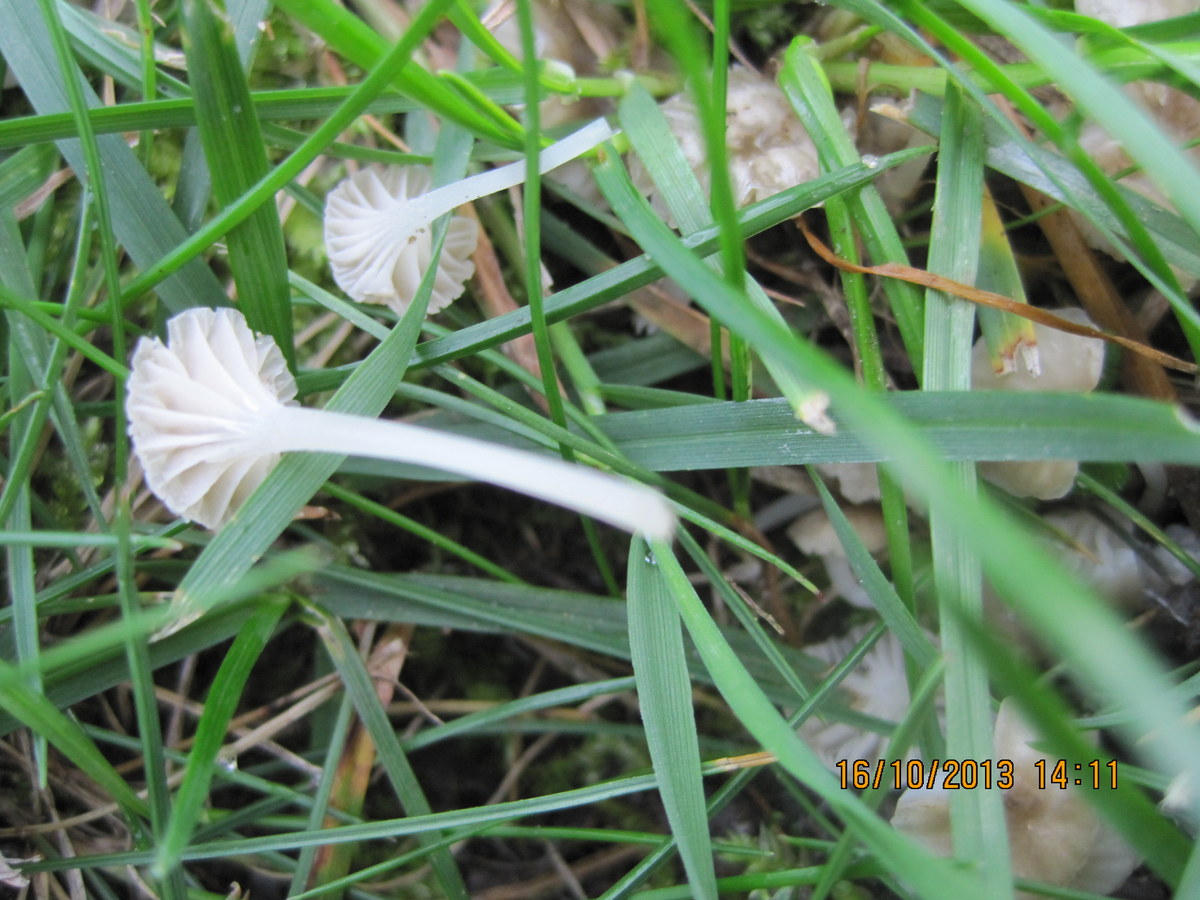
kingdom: Fungi
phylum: Basidiomycota
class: Agaricomycetes
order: Agaricales
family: Hygrophoraceae
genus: Cuphophyllus
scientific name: Cuphophyllus virgineus
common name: snehvid vokshat
